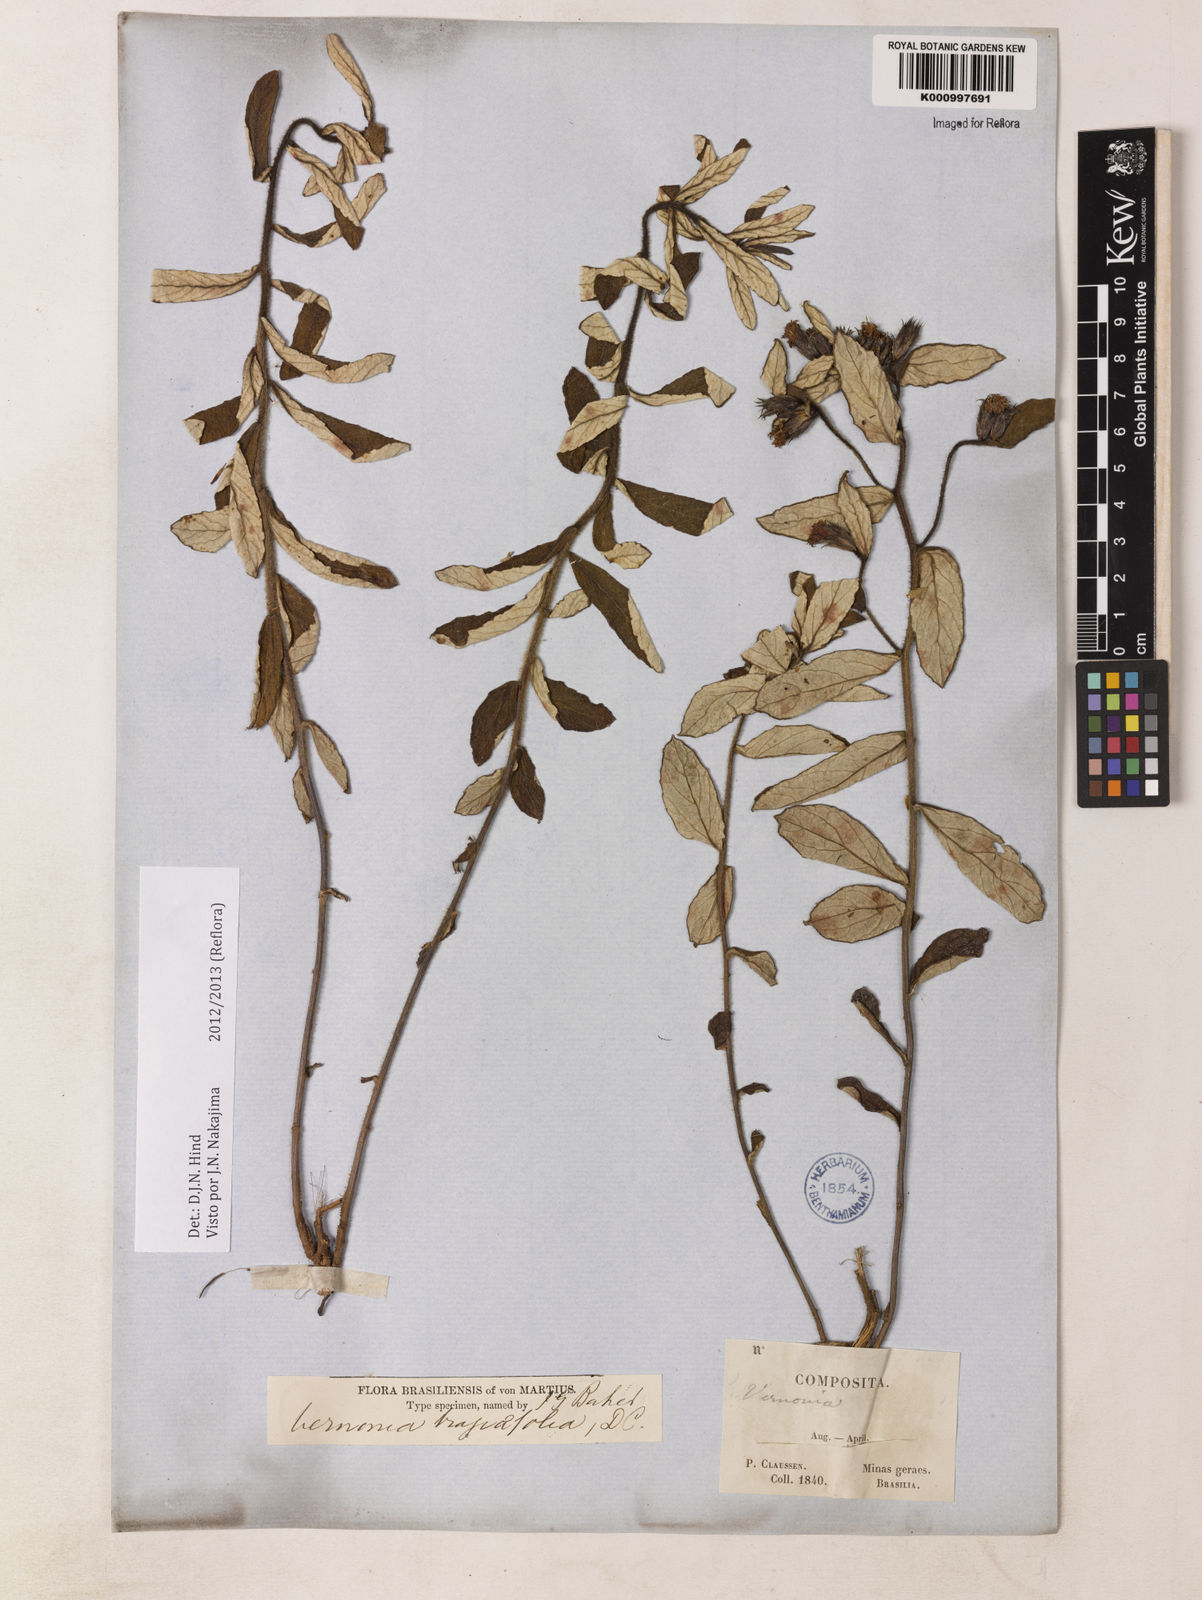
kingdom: Plantae
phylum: Tracheophyta
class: Magnoliopsida
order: Asterales
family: Asteraceae
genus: Vernonia
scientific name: Vernonia
